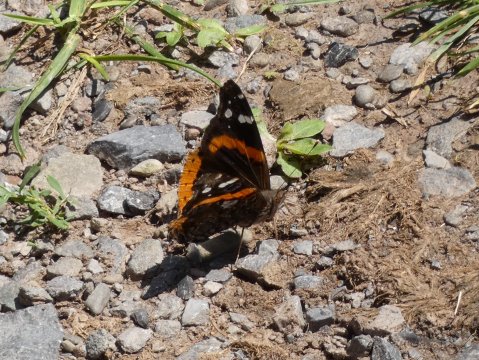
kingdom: Animalia
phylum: Arthropoda
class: Insecta
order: Lepidoptera
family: Nymphalidae
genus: Vanessa
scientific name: Vanessa atalanta
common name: Red Admiral
